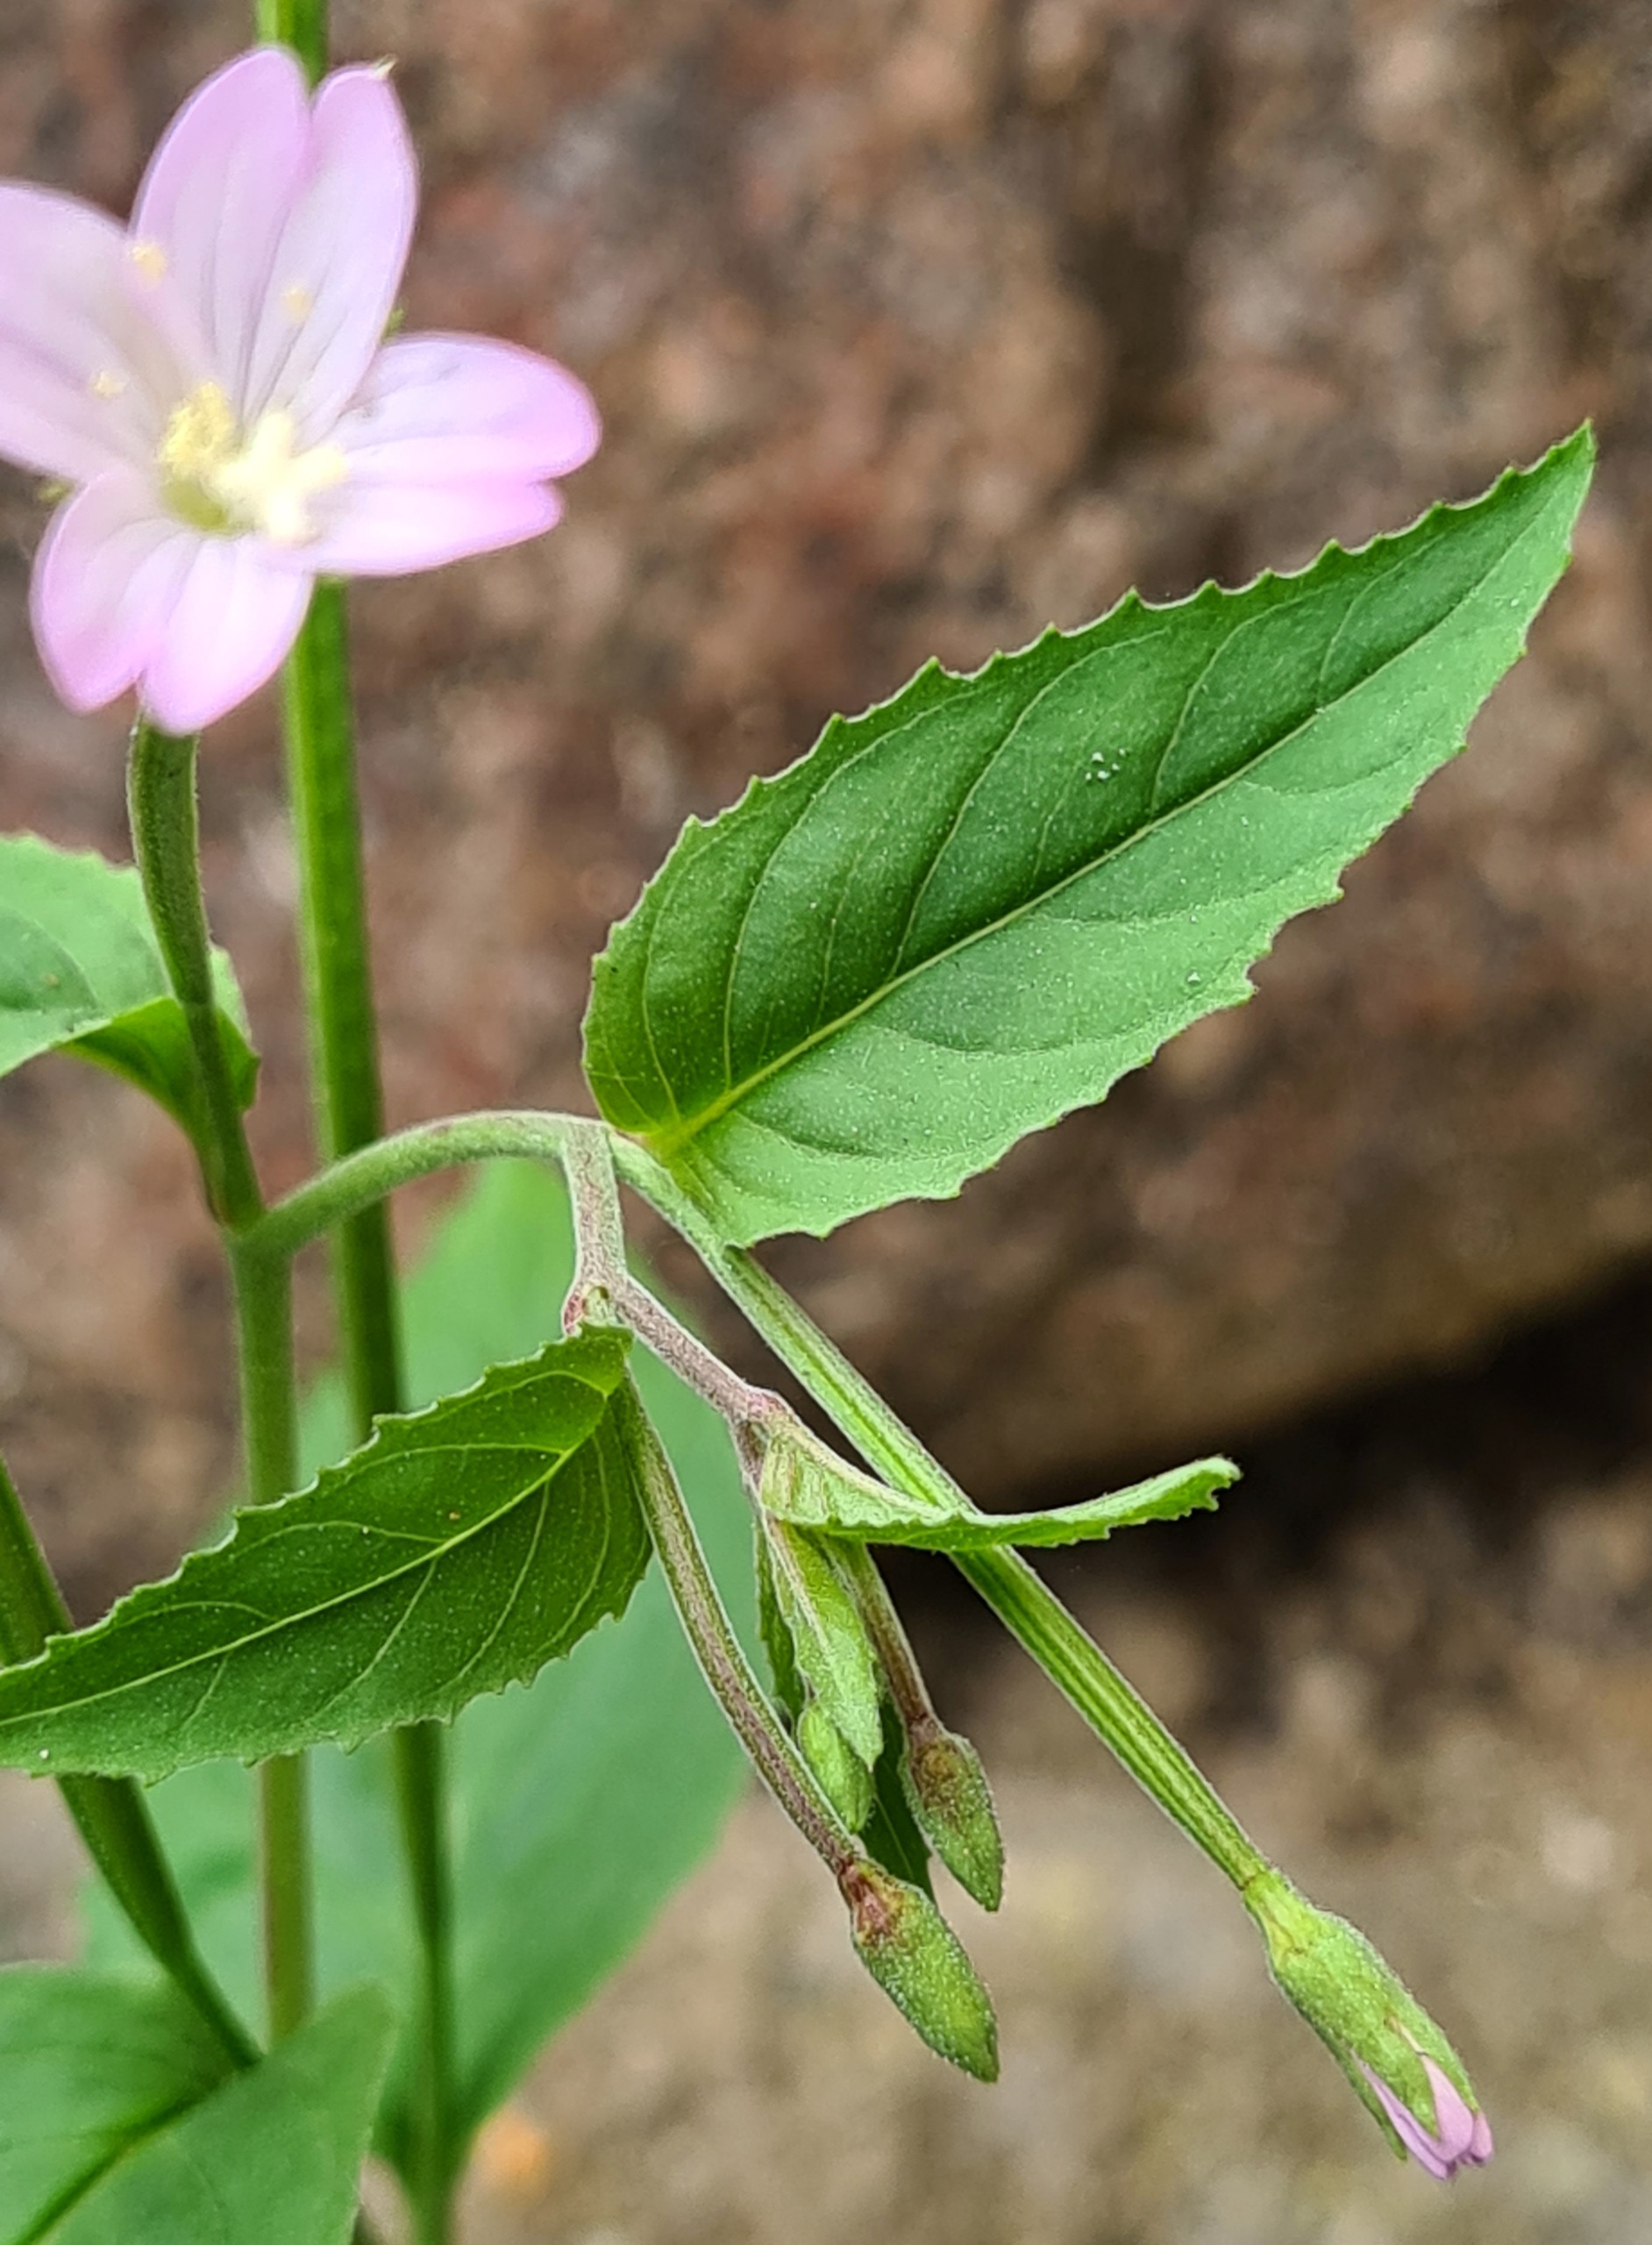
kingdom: Plantae
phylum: Tracheophyta
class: Magnoliopsida
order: Myrtales
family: Onagraceae
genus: Epilobium
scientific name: Epilobium montanum
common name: Glat dueurt
